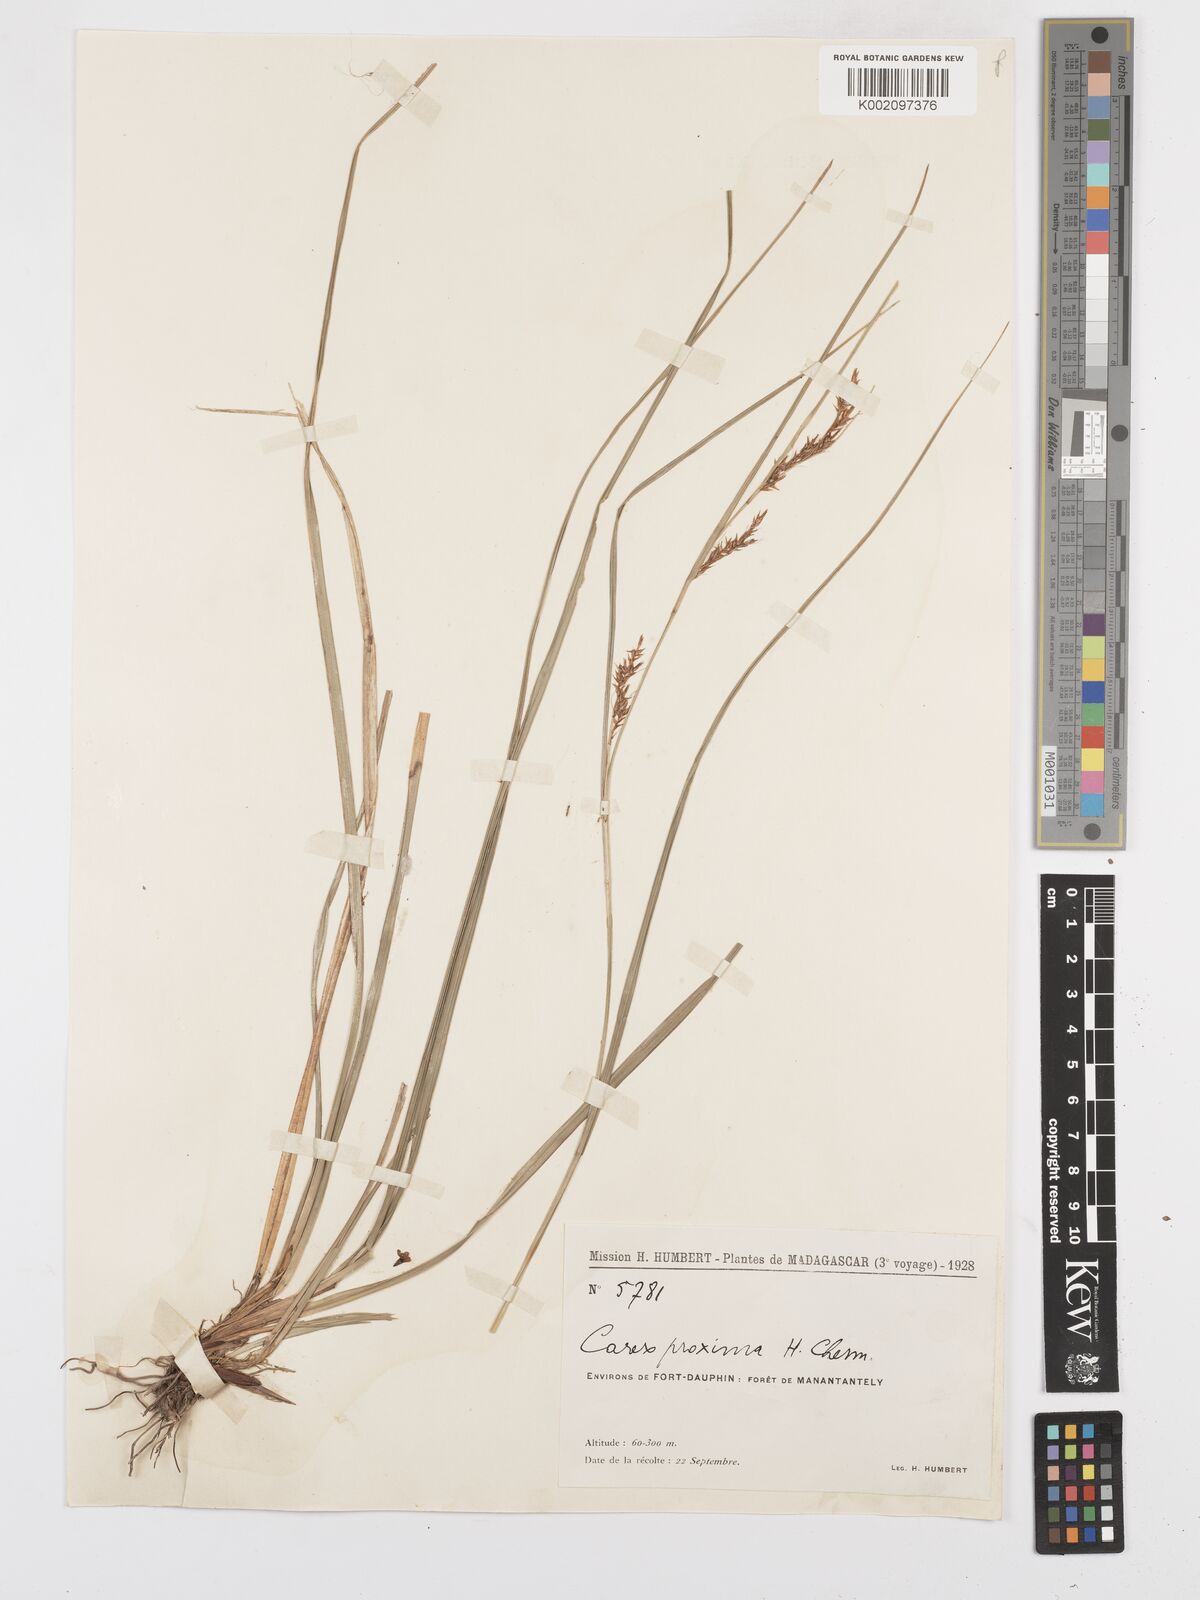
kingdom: Plantae
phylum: Tracheophyta
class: Liliopsida
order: Poales
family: Cyperaceae
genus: Carex
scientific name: Carex proxima
